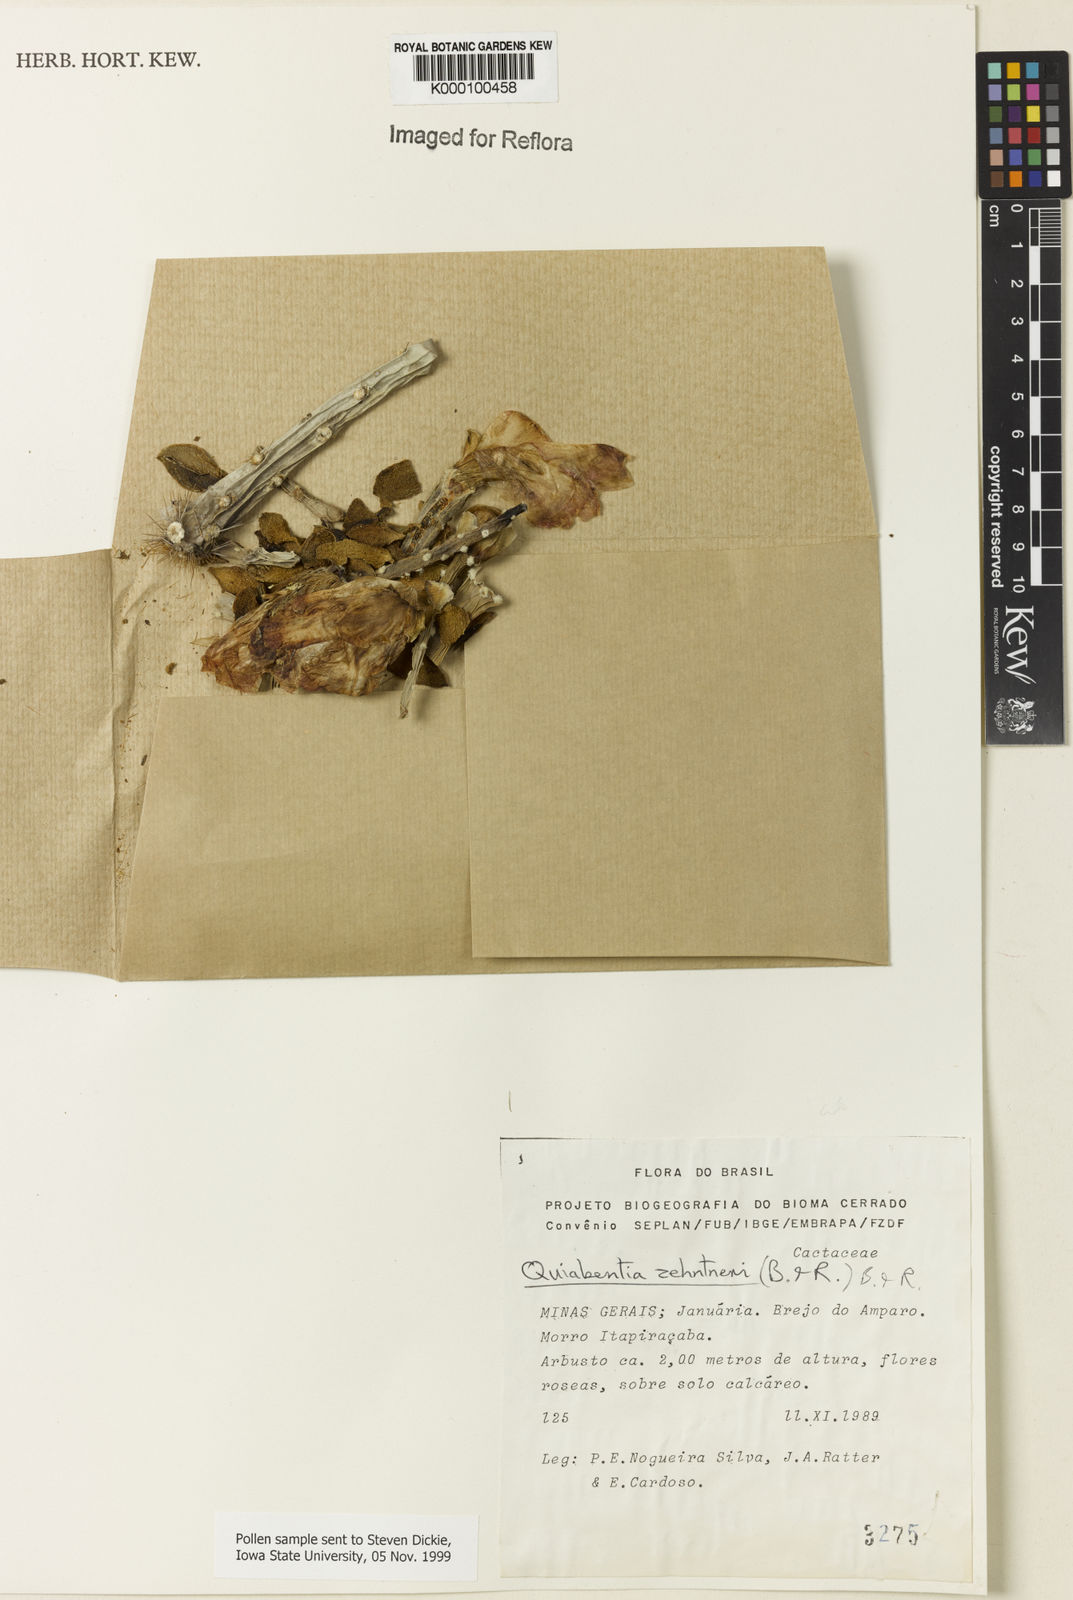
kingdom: Plantae
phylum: Tracheophyta
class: Magnoliopsida
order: Caryophyllales
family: Cactaceae
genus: Quiabentia
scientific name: Quiabentia zehntneri
